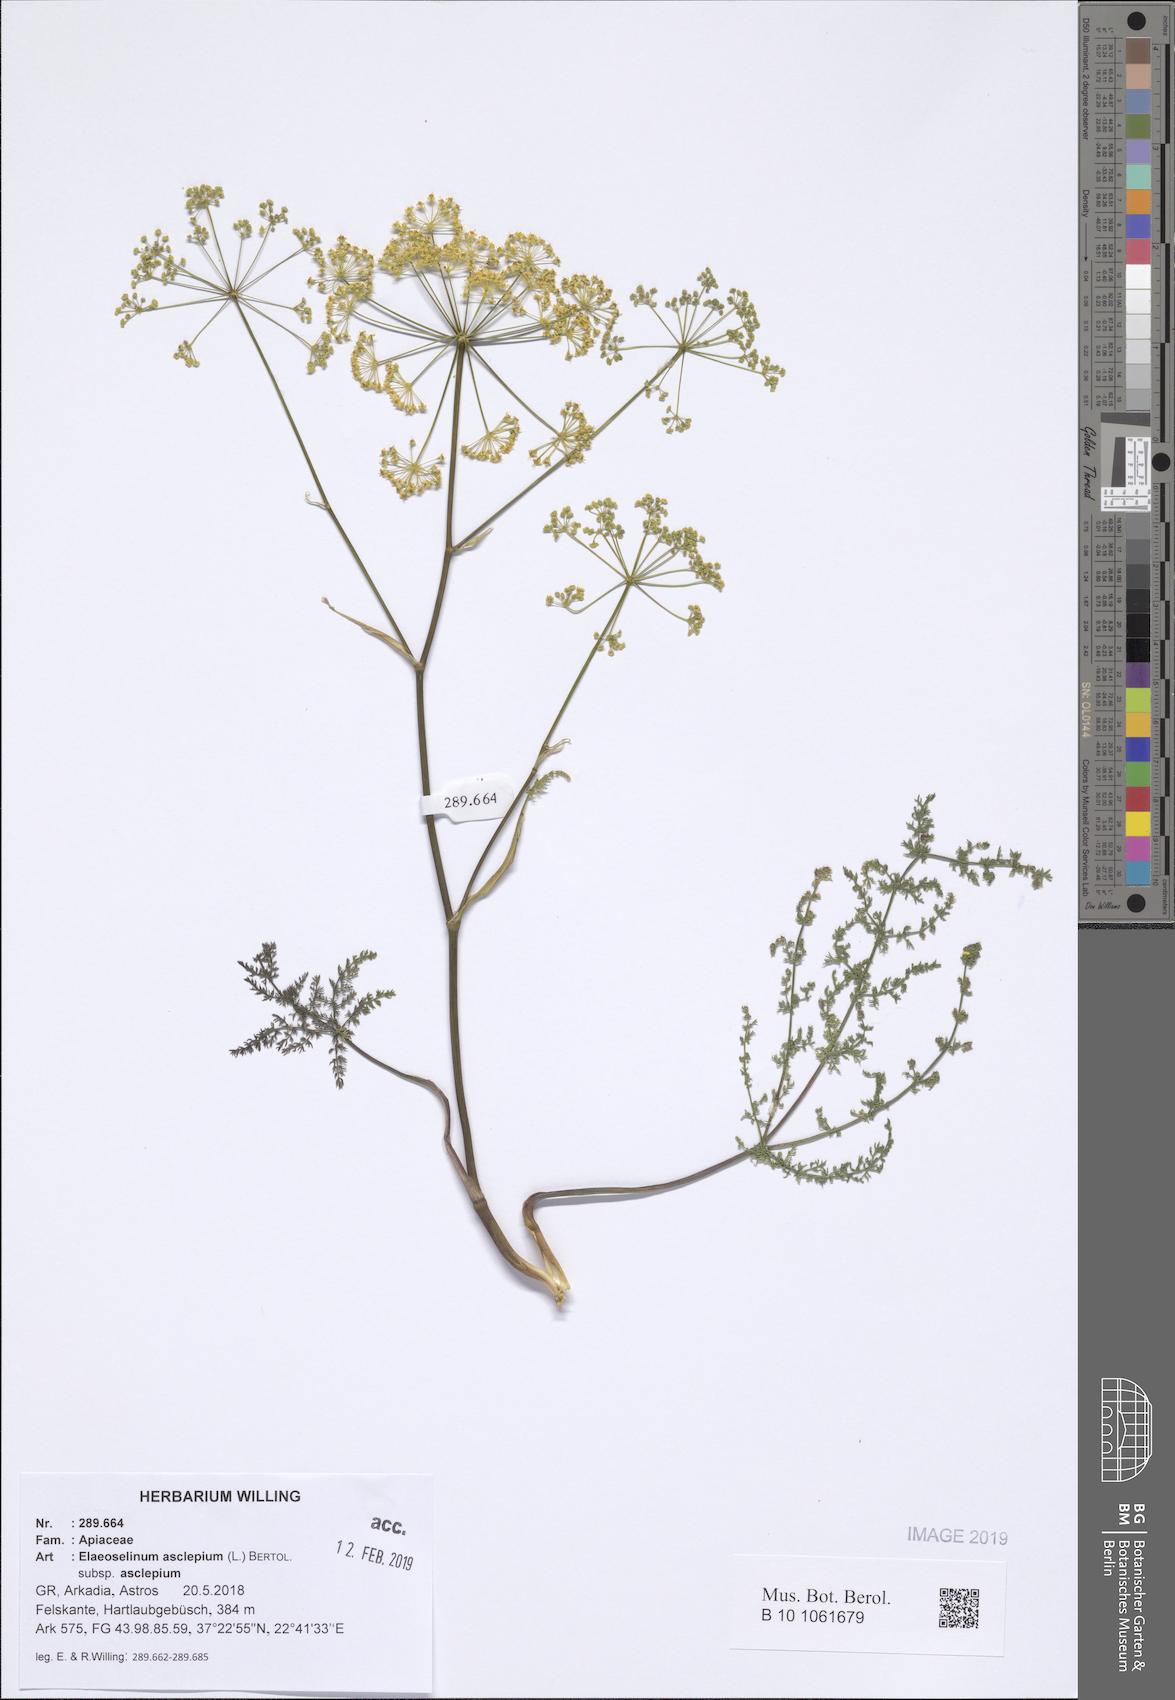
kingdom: Plantae
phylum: Tracheophyta
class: Magnoliopsida
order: Apiales
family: Apiaceae
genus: Thapsia
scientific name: Thapsia asclepium
